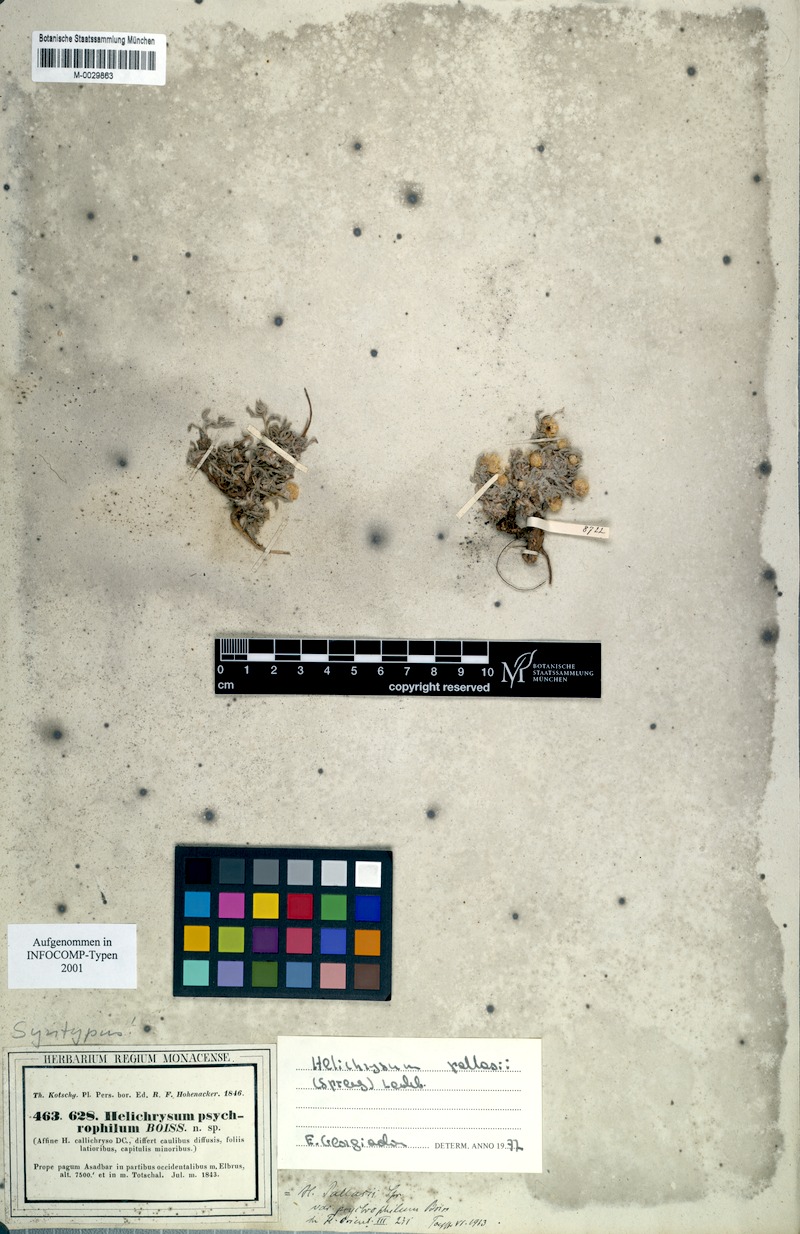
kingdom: Plantae
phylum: Tracheophyta
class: Magnoliopsida
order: Asterales
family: Asteraceae
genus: Helichrysum
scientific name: Helichrysum pallasii
